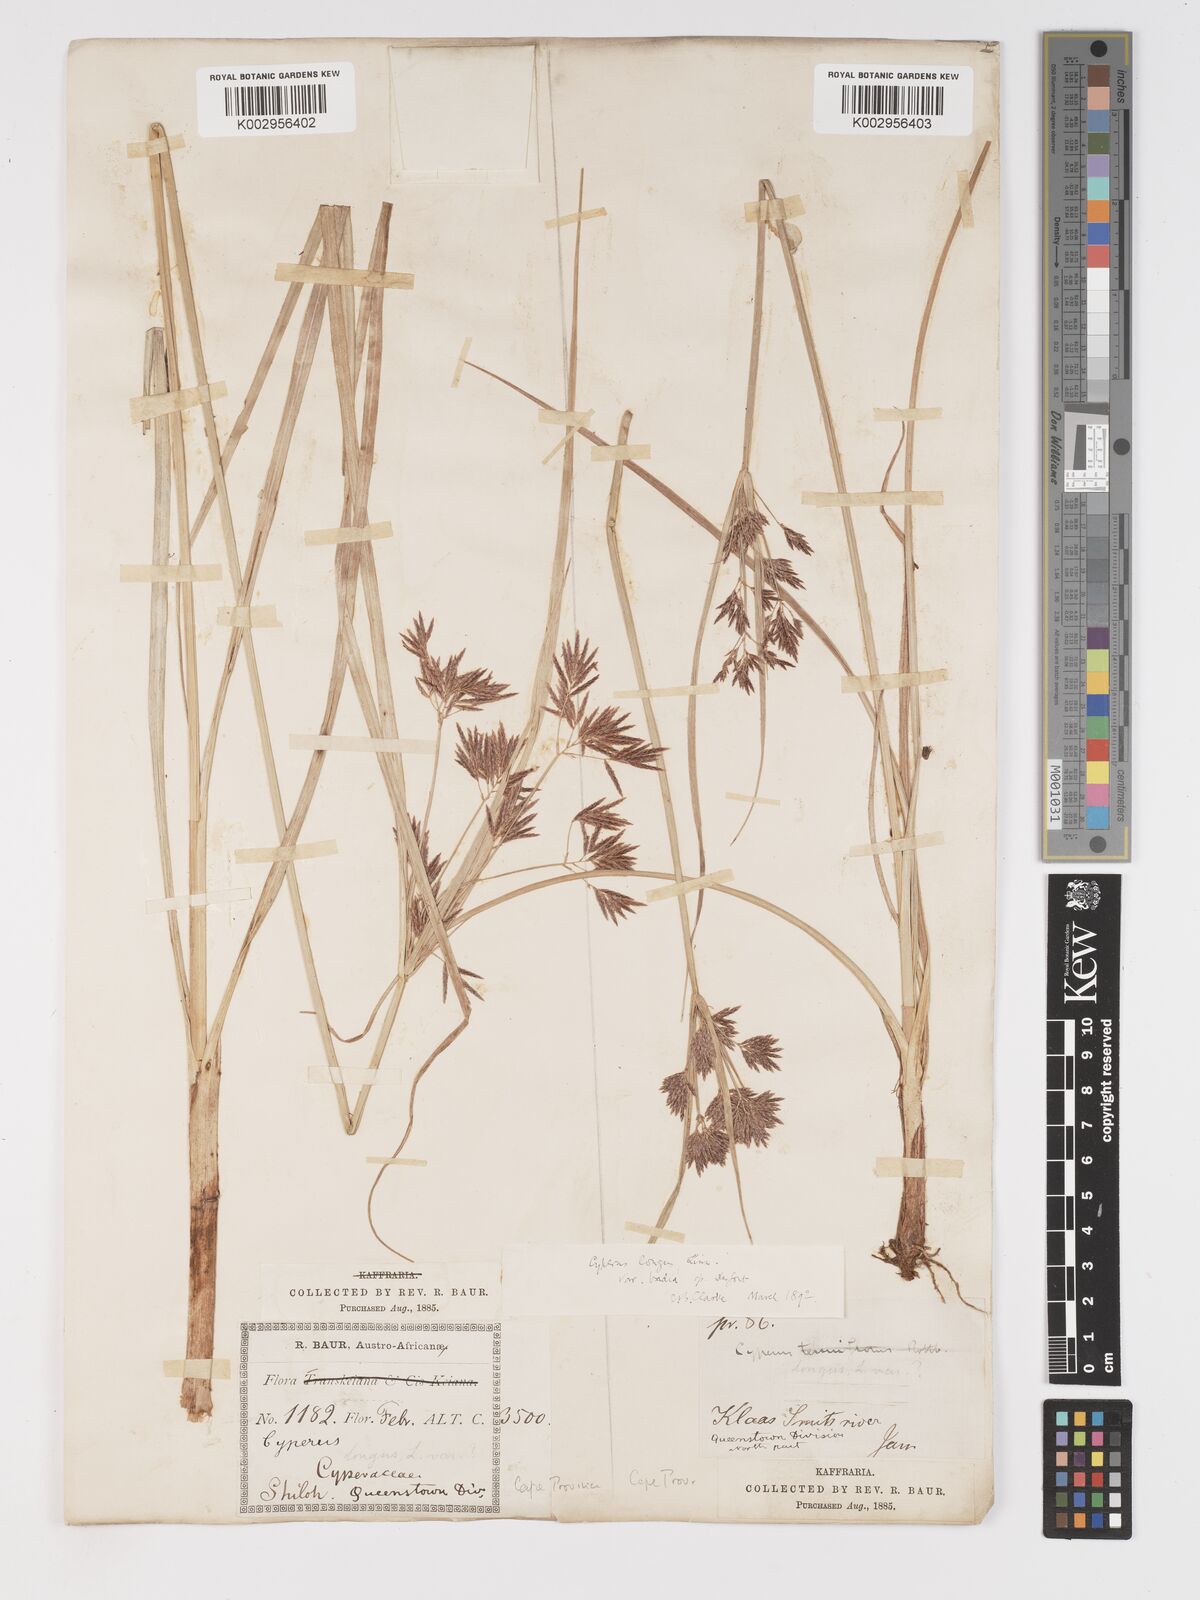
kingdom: Plantae
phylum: Tracheophyta
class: Liliopsida
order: Poales
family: Cyperaceae
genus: Cyperus
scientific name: Cyperus longus
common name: Galingale
